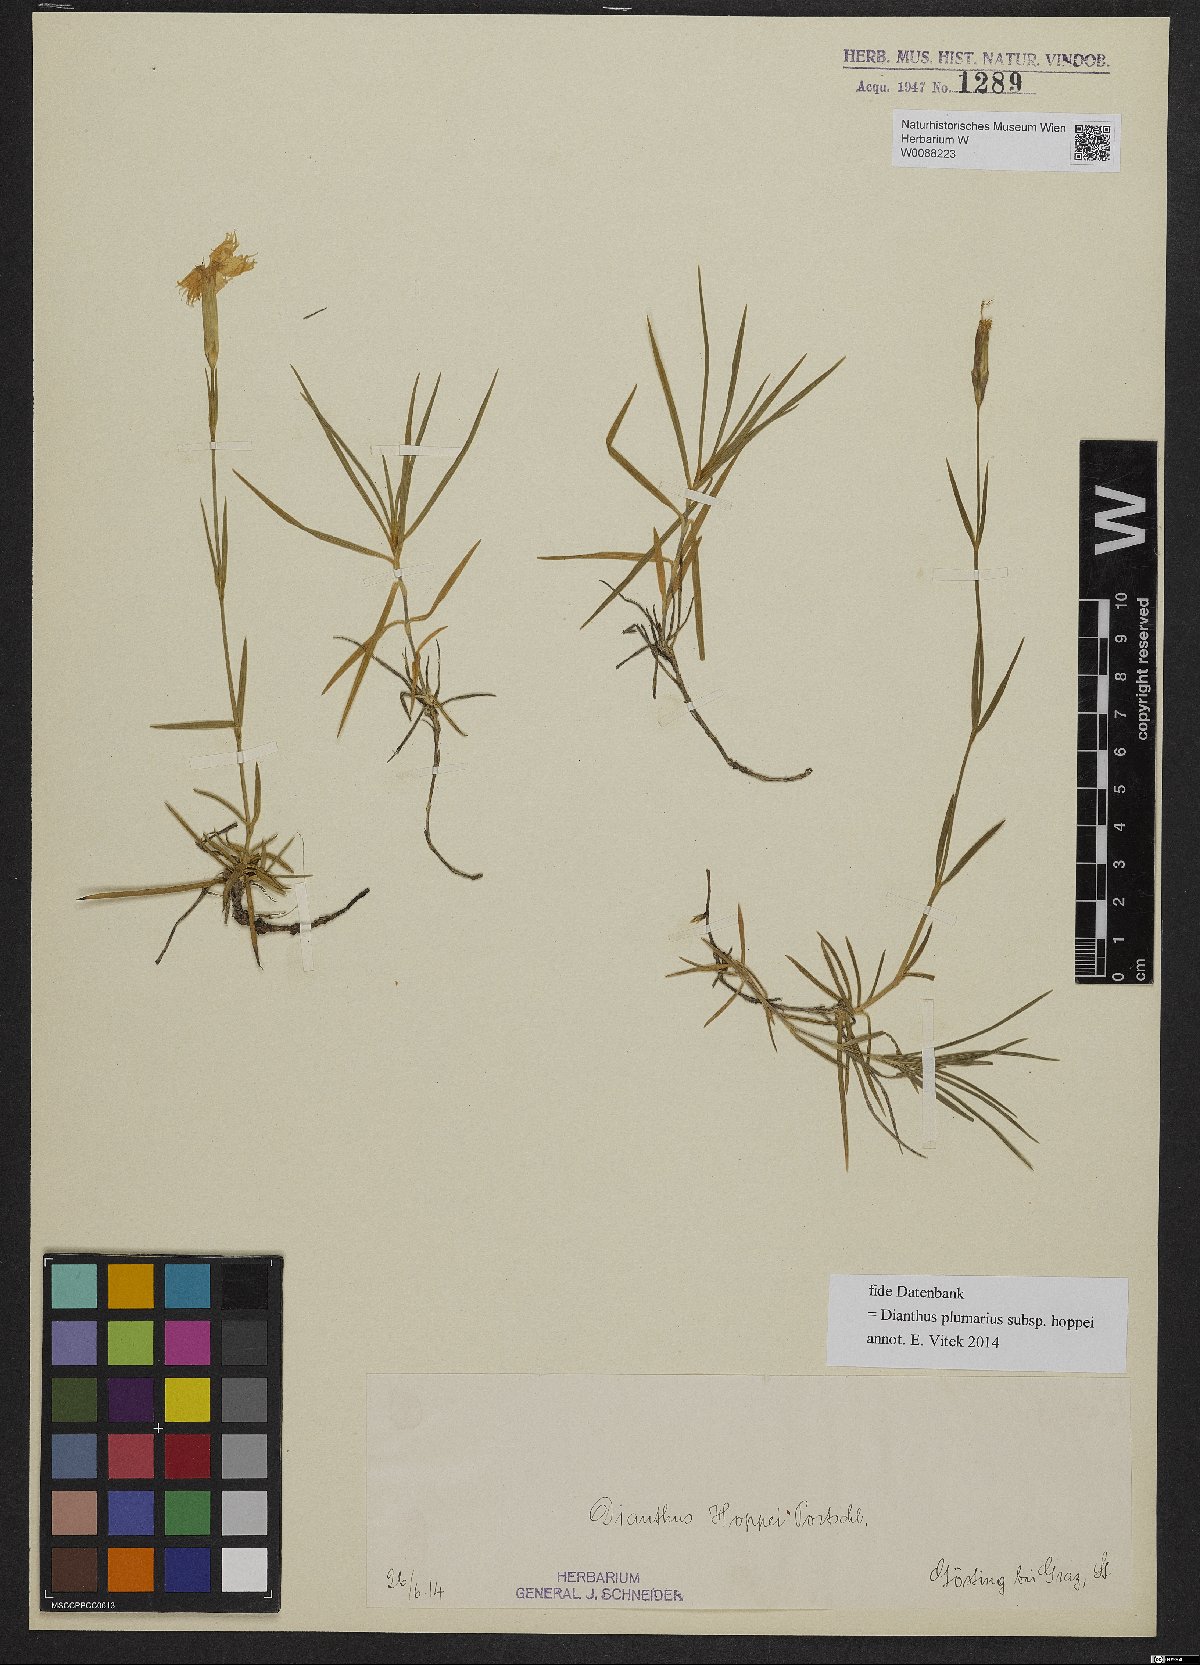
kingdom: Plantae
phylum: Tracheophyta
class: Magnoliopsida
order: Caryophyllales
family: Caryophyllaceae
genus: Dianthus
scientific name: Dianthus plumarius
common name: Pink
